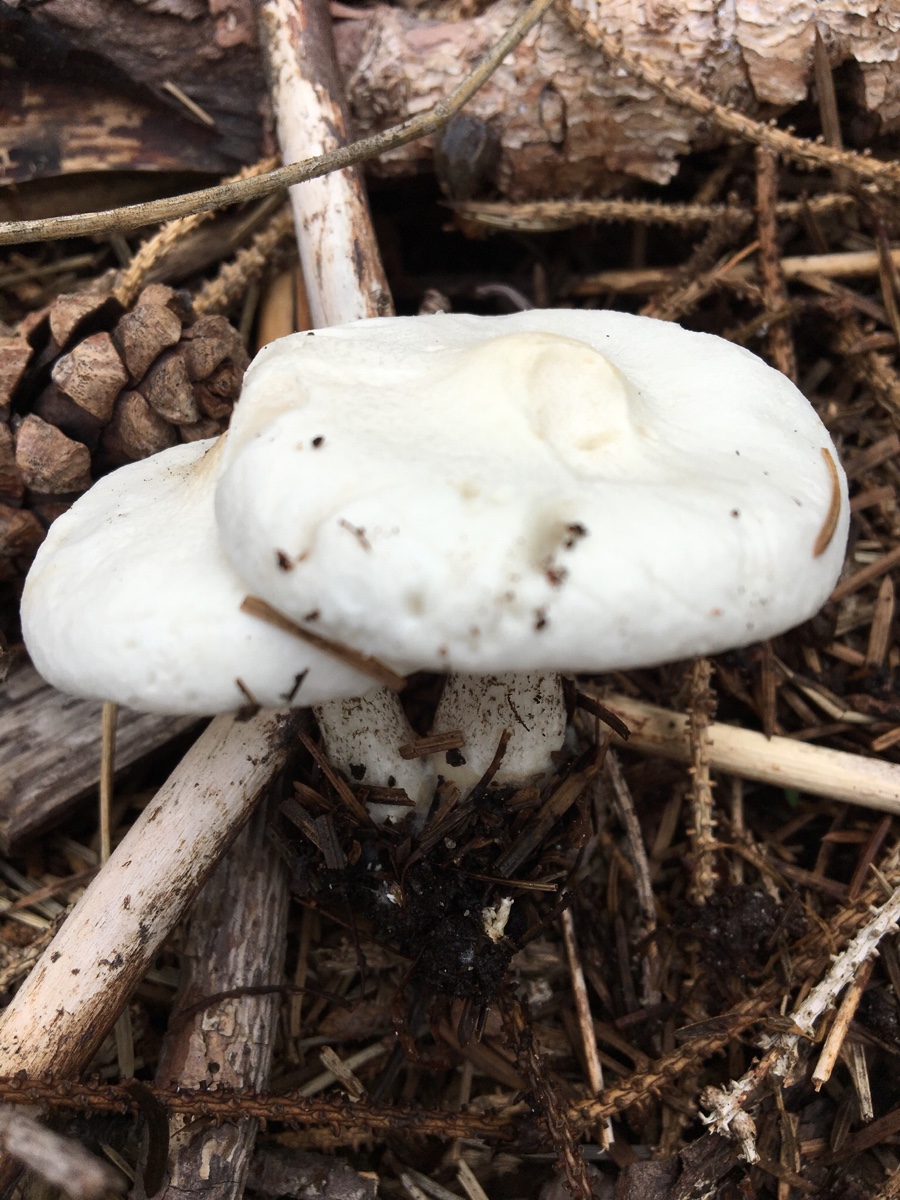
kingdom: Fungi
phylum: Basidiomycota
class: Agaricomycetes
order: Agaricales
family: Tricholomataceae
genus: Melanoleuca
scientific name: Melanoleuca verrucipes
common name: rufodet munkehat
